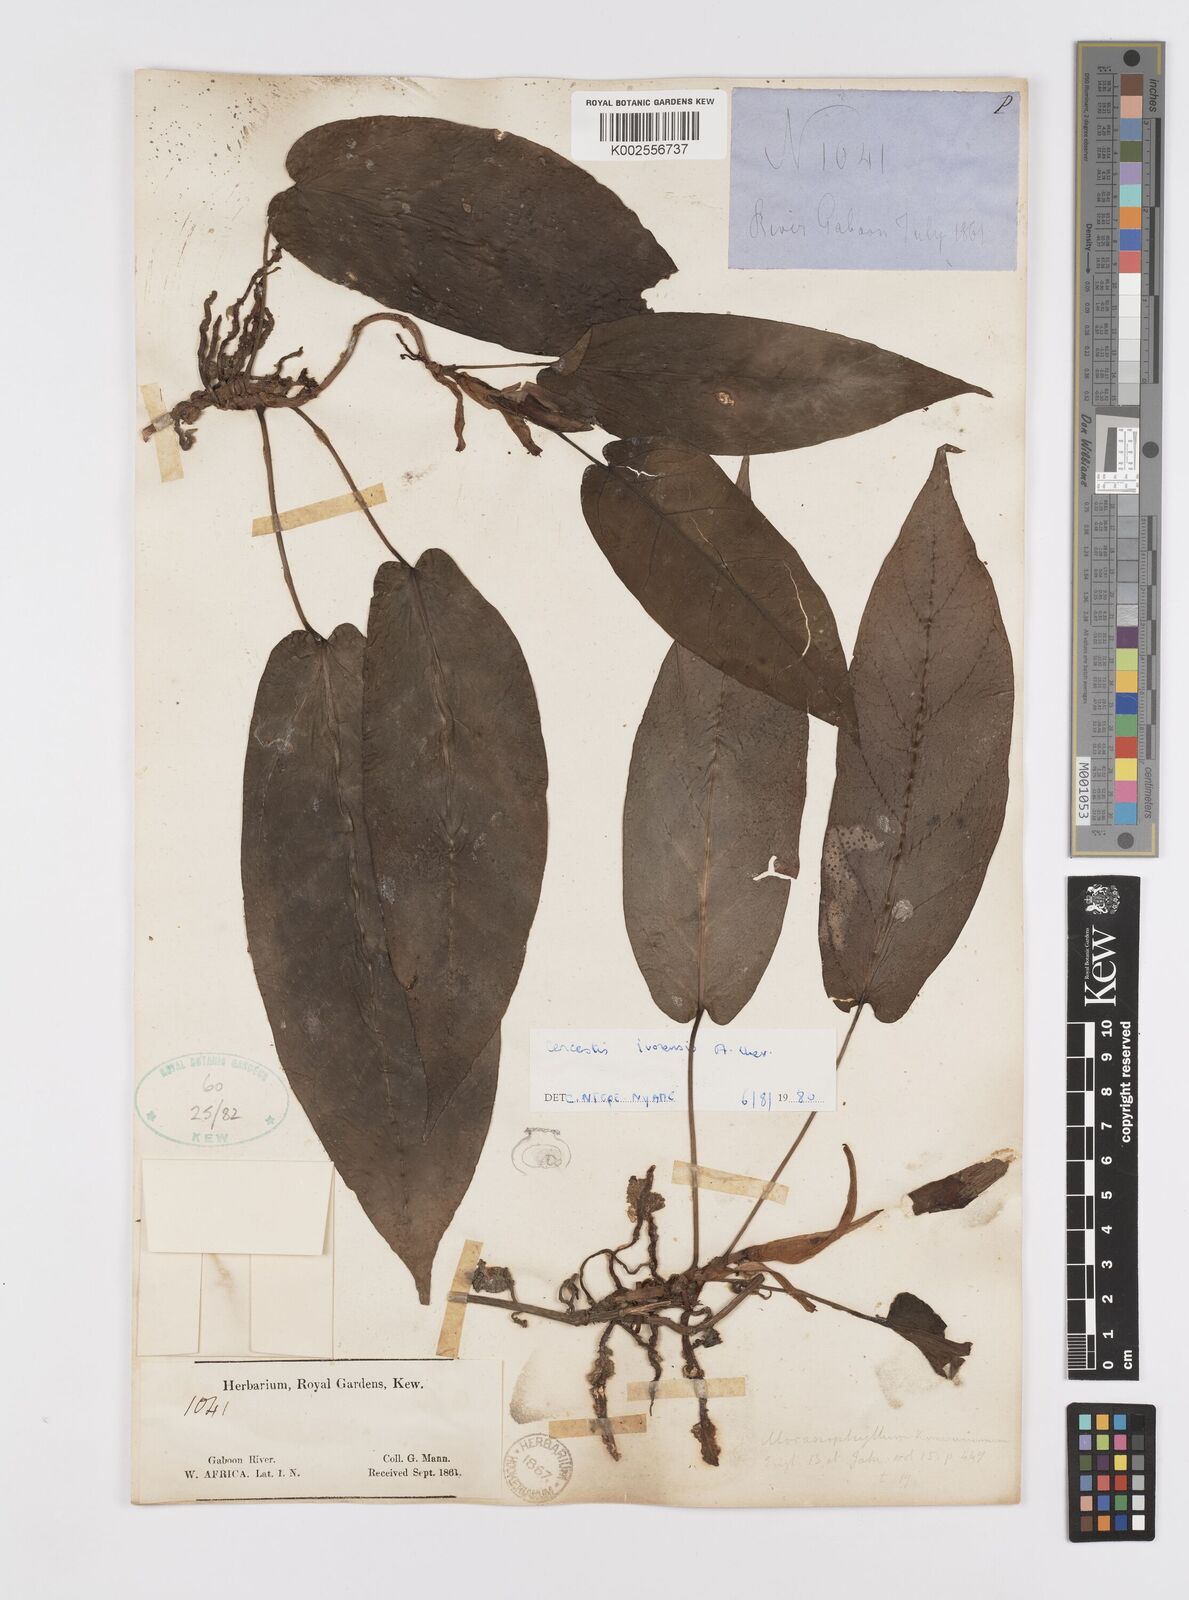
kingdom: Plantae
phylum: Tracheophyta
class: Liliopsida
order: Alismatales
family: Araceae
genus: Cercestis
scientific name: Cercestis ivorensis
